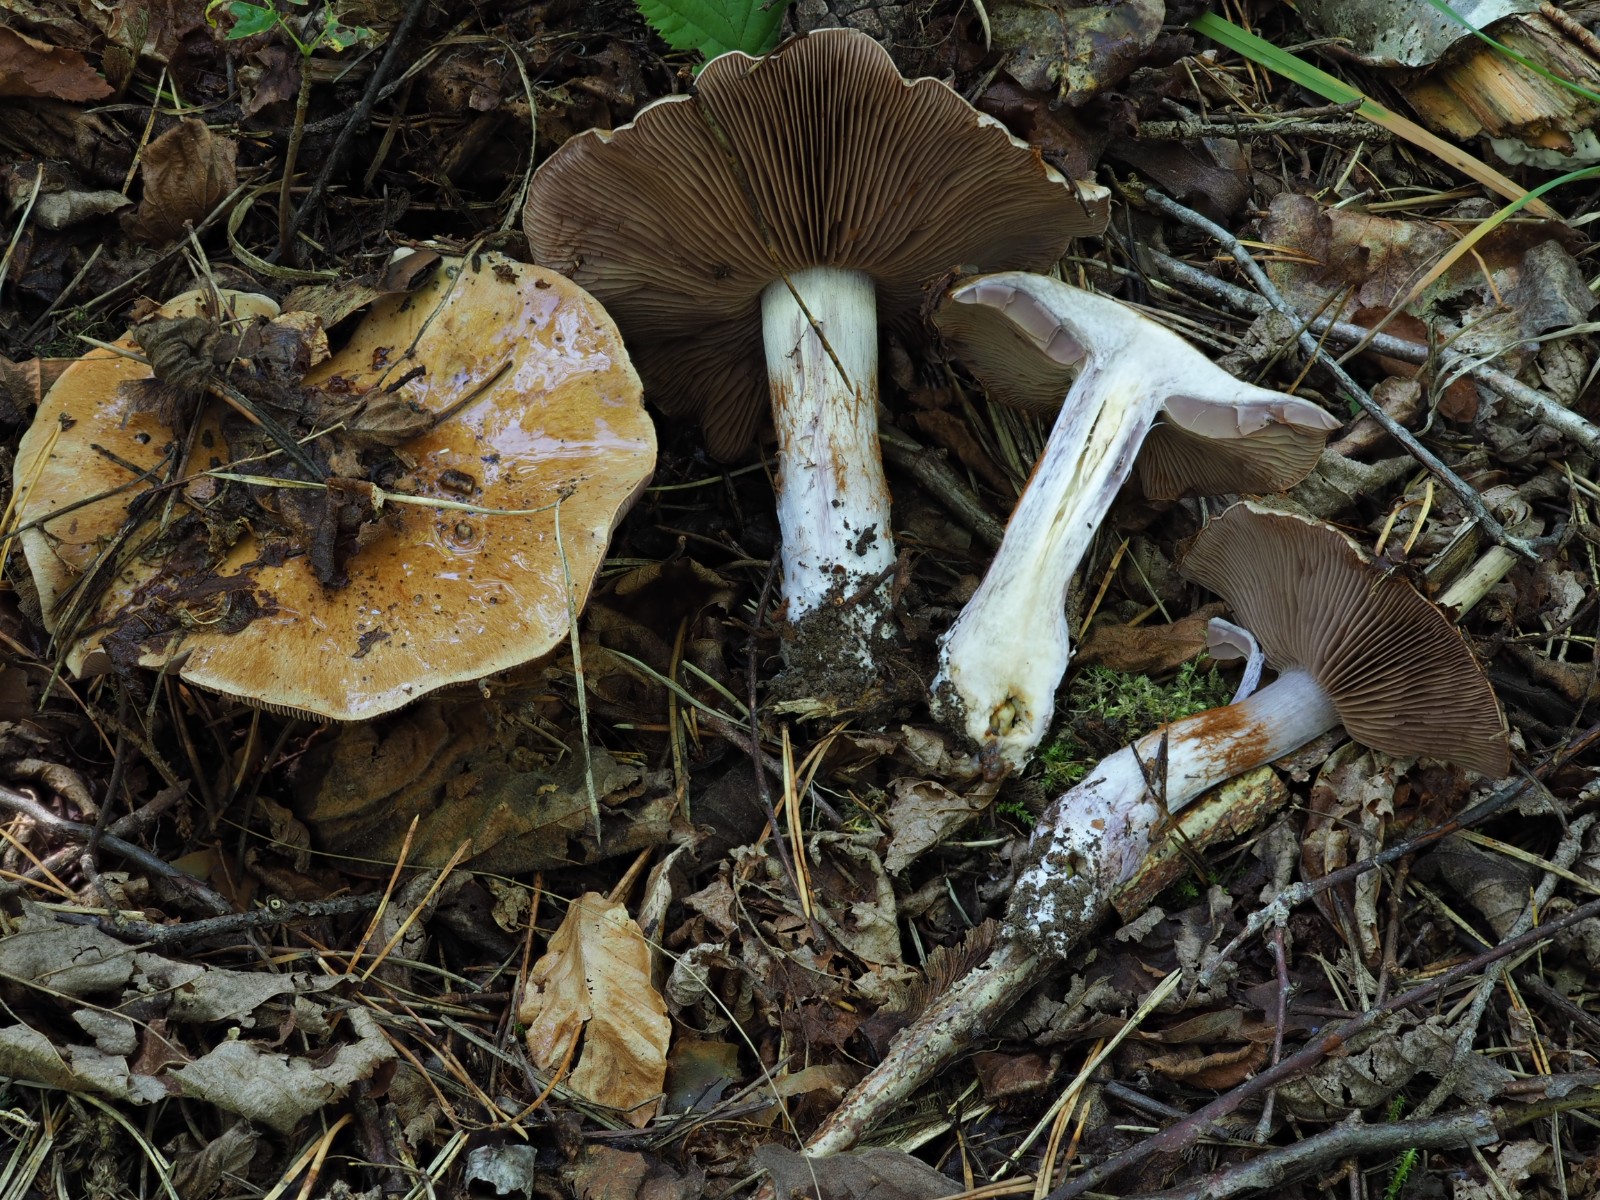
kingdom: Fungi
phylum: Basidiomycota
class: Agaricomycetes
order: Agaricales
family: Cortinariaceae
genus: Thaxterogaster
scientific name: Thaxterogaster subpurpurascens
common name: mørkblånende slørhat
